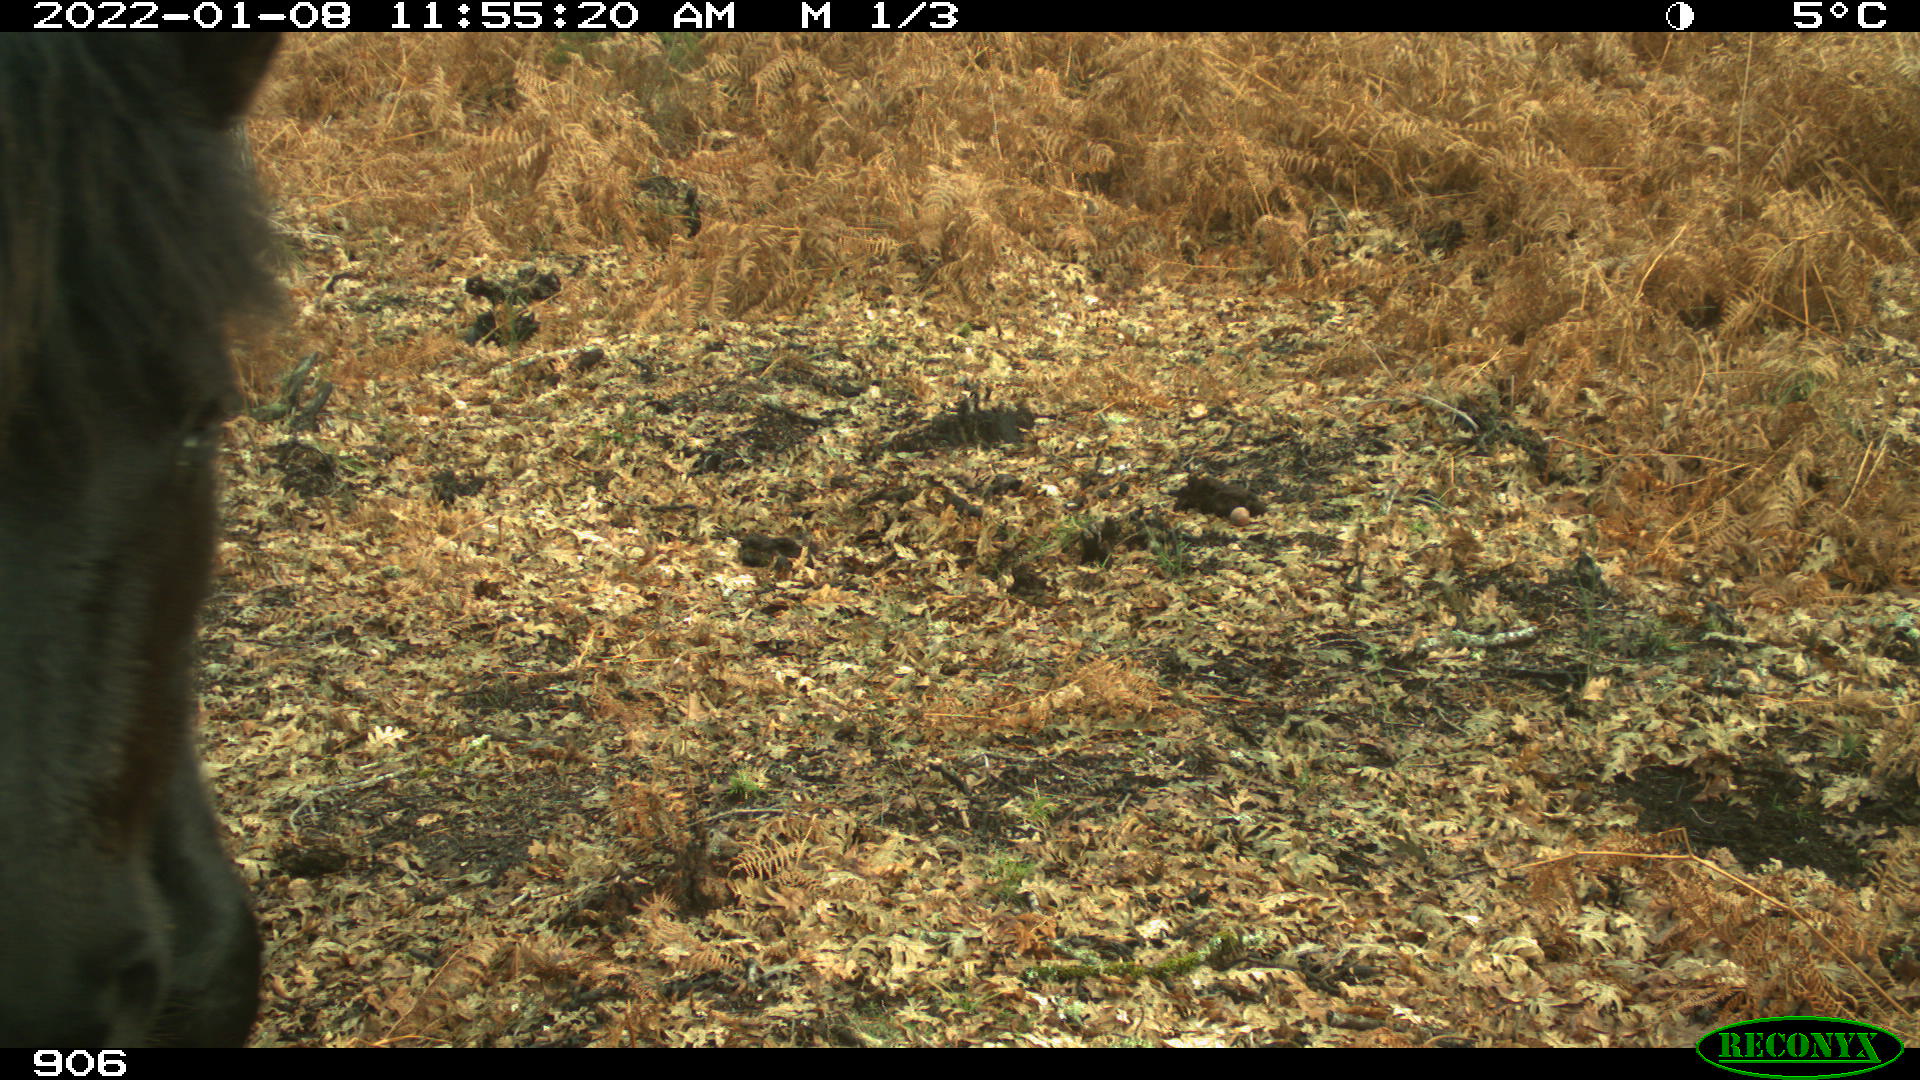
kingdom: Animalia
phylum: Chordata
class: Mammalia
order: Perissodactyla
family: Equidae
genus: Equus
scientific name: Equus caballus
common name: Horse
